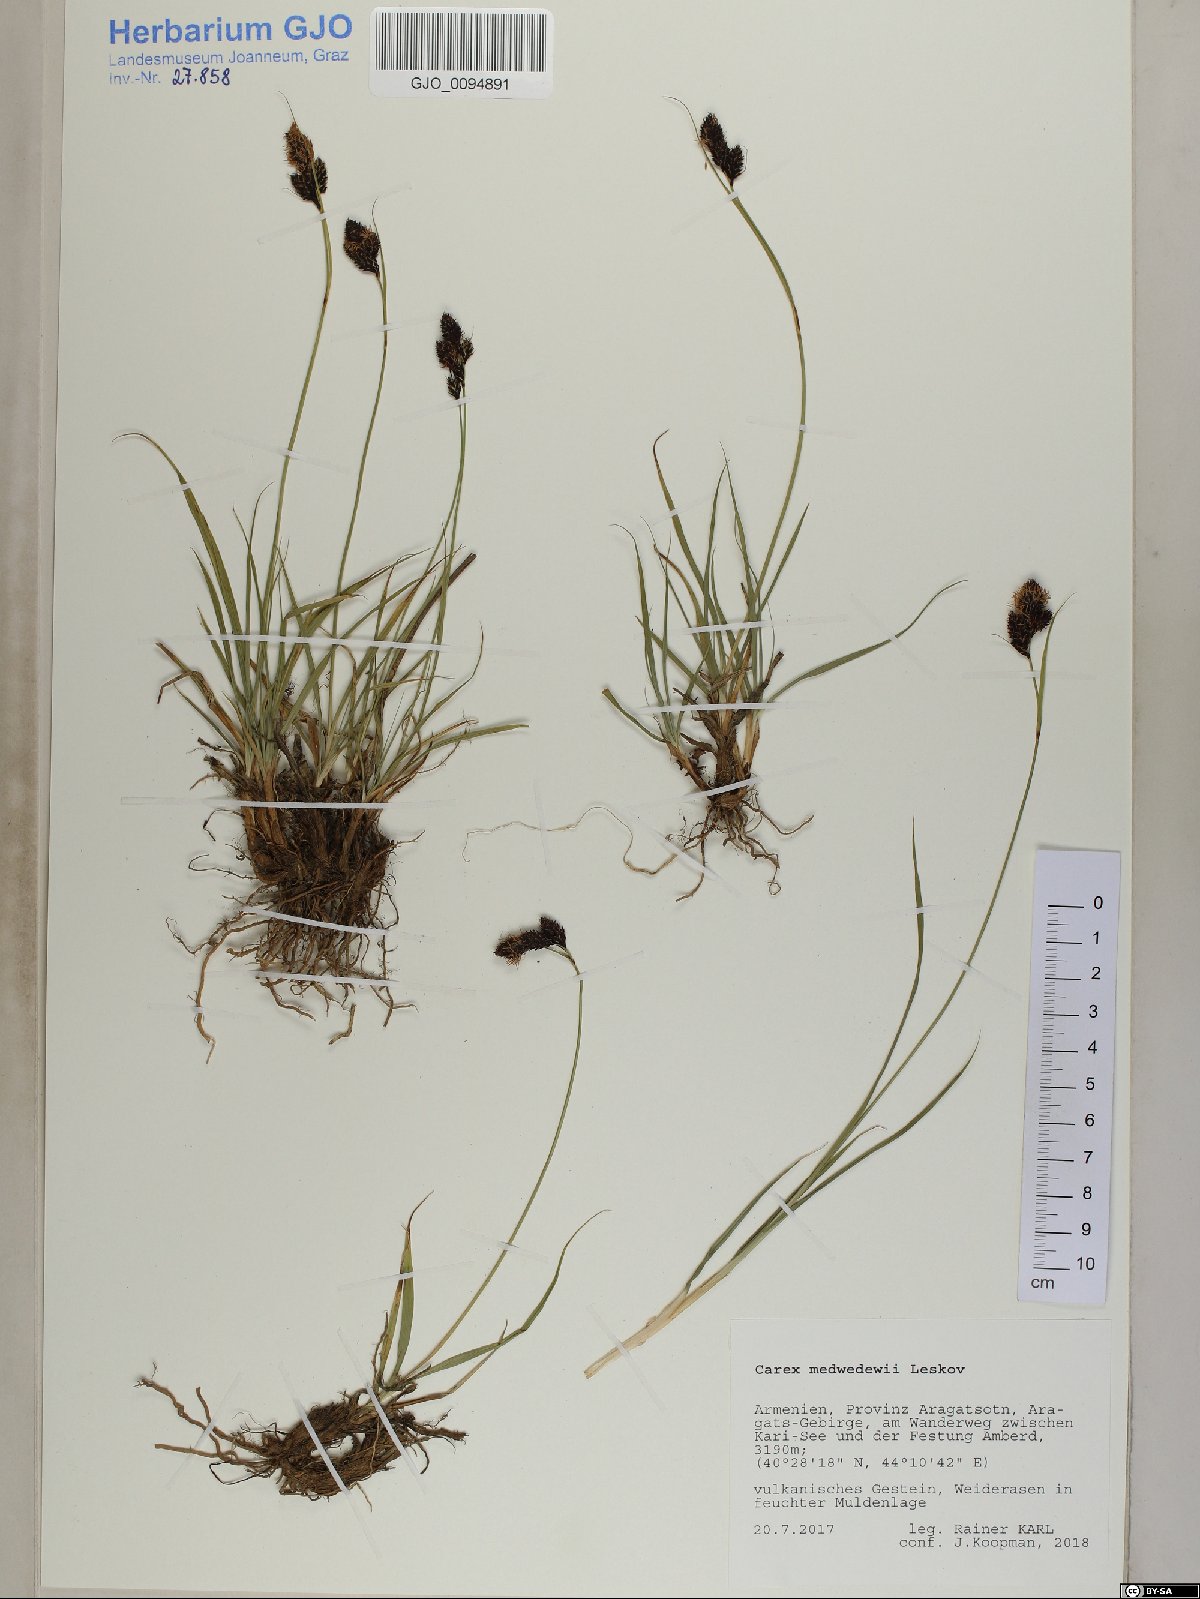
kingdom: Plantae
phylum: Tracheophyta
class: Liliopsida
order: Poales
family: Cyperaceae
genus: Carex
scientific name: Carex aterrima
